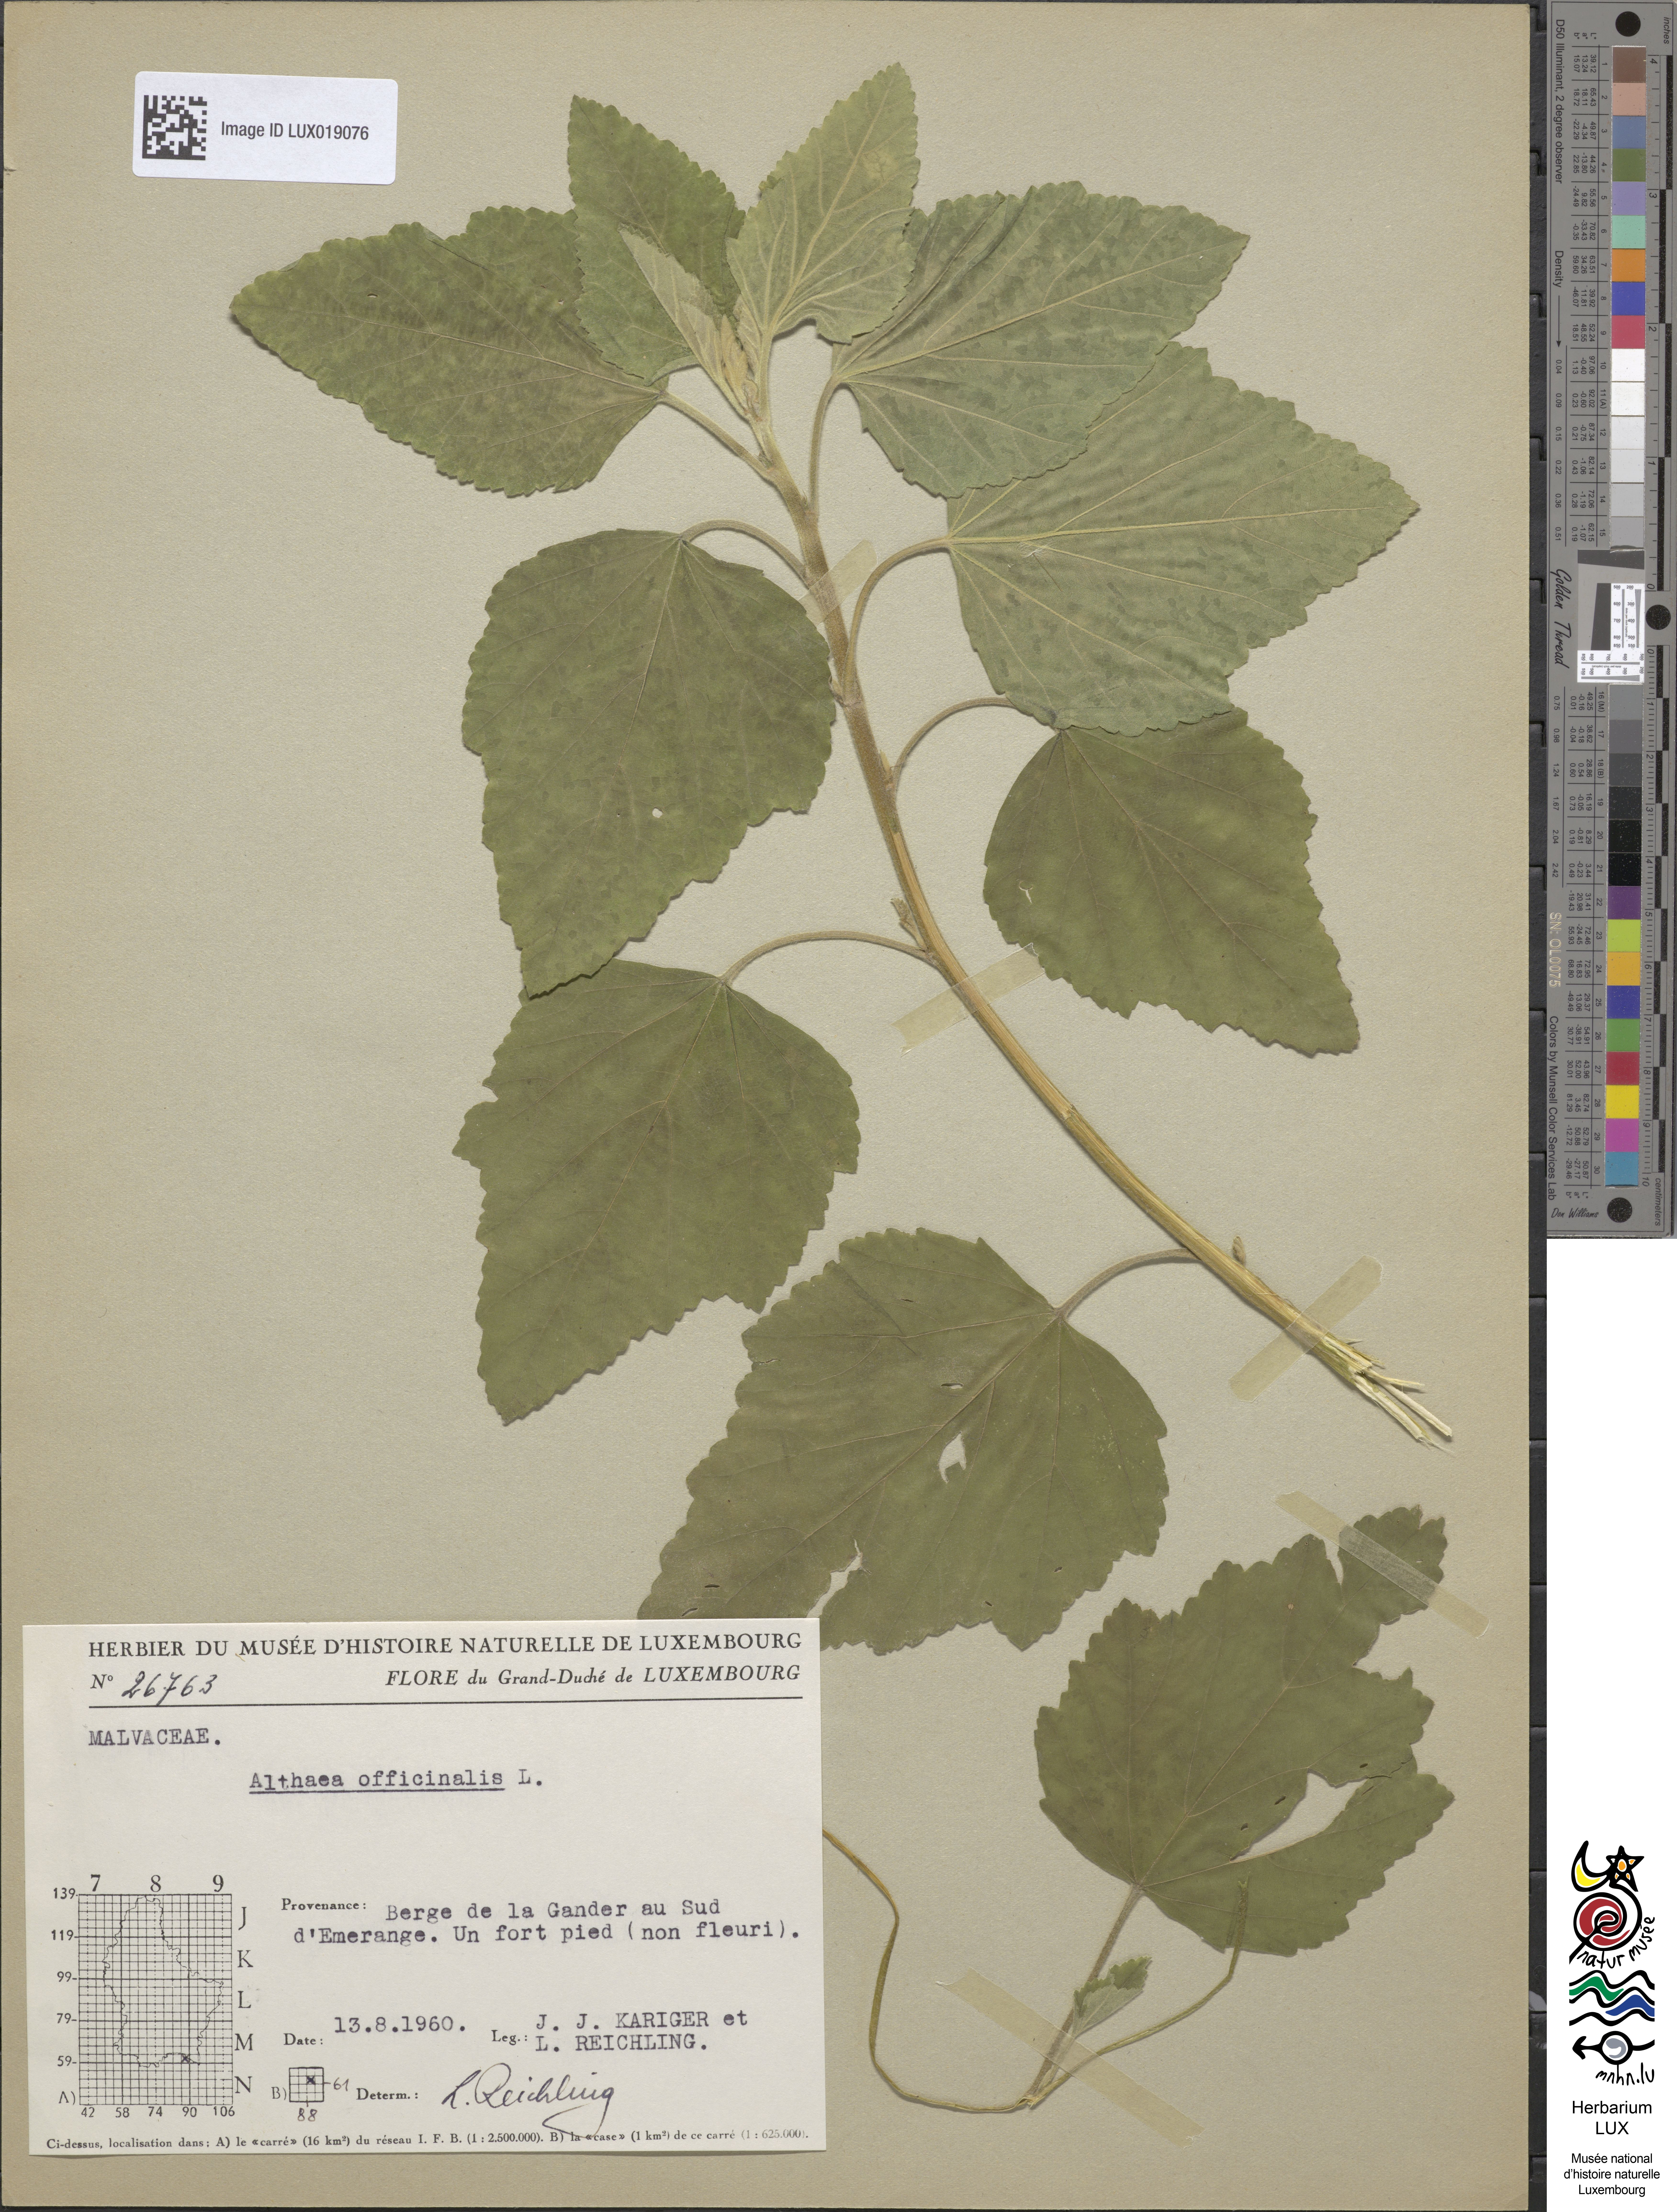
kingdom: Plantae
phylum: Tracheophyta
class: Magnoliopsida
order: Malvales
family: Malvaceae
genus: Althaea
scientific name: Althaea officinalis
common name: Marsh-mallow
